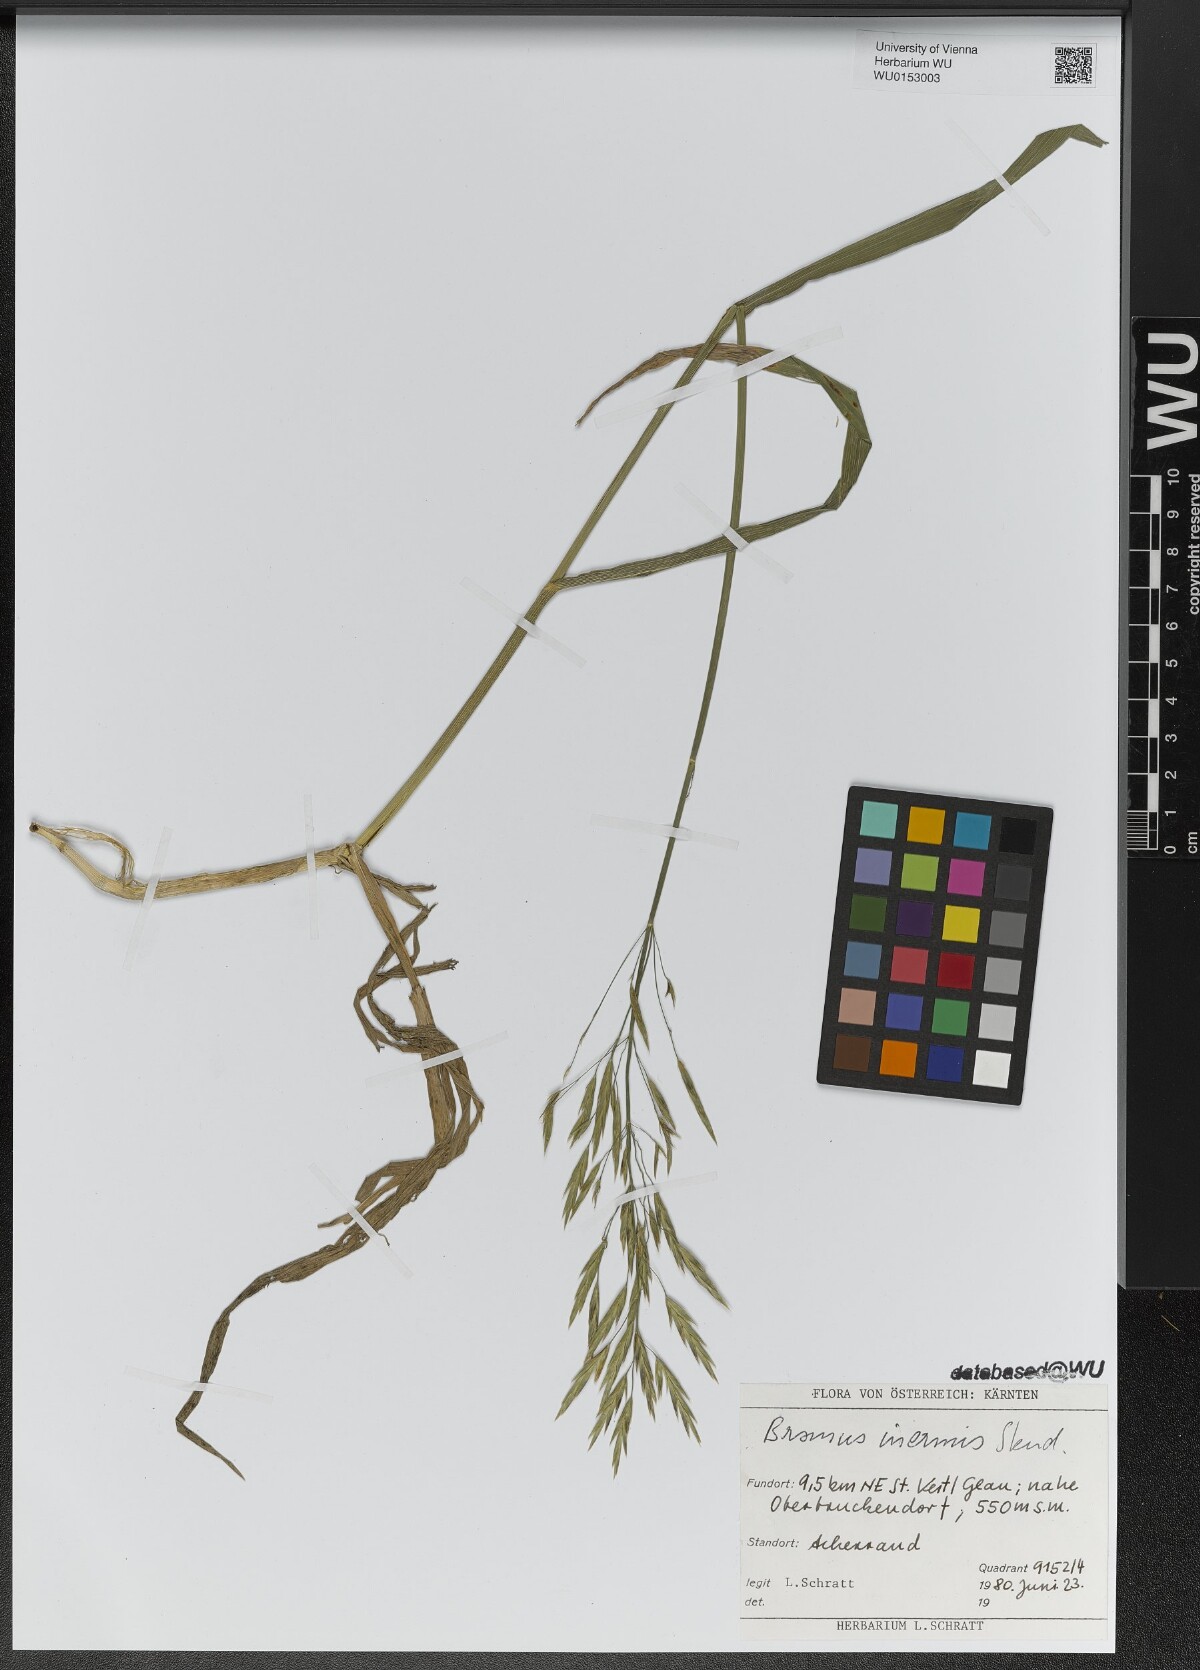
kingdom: Plantae
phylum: Tracheophyta
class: Liliopsida
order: Poales
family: Poaceae
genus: Bromus
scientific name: Bromus inermis
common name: Smooth brome
